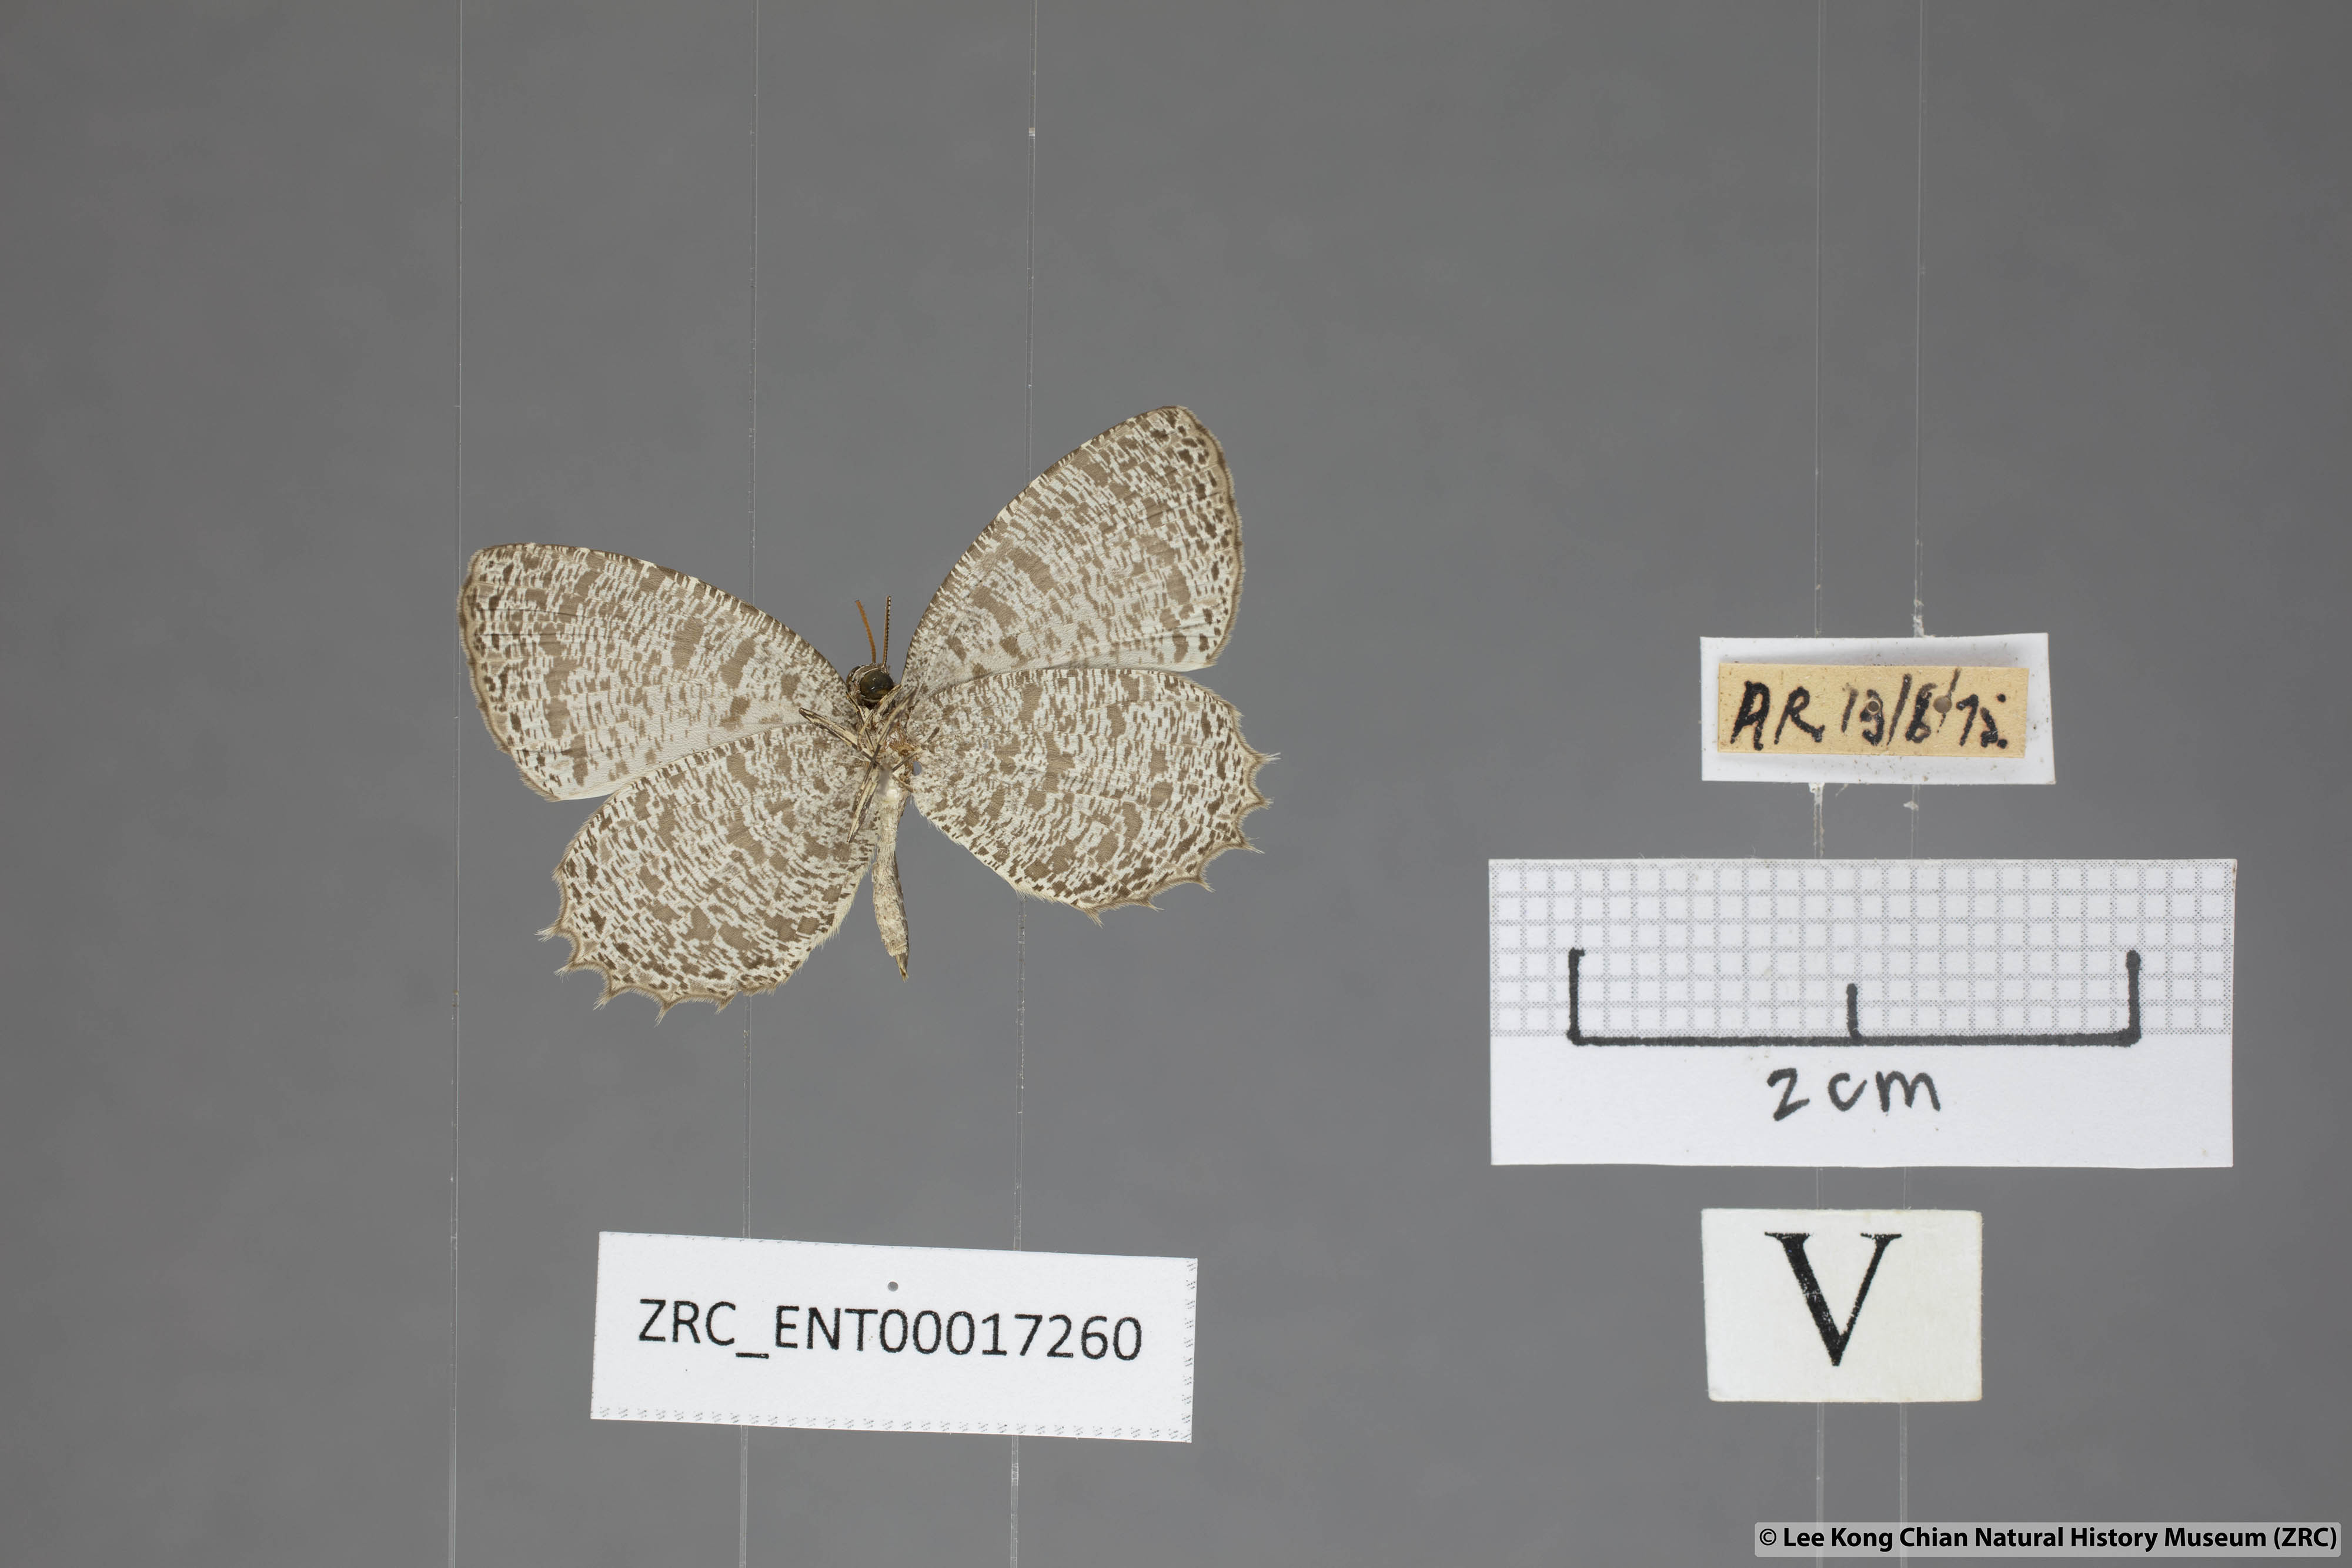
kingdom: Animalia
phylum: Arthropoda
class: Insecta
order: Lepidoptera
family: Lycaenidae
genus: Allotinus
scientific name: Allotinus leogoron
